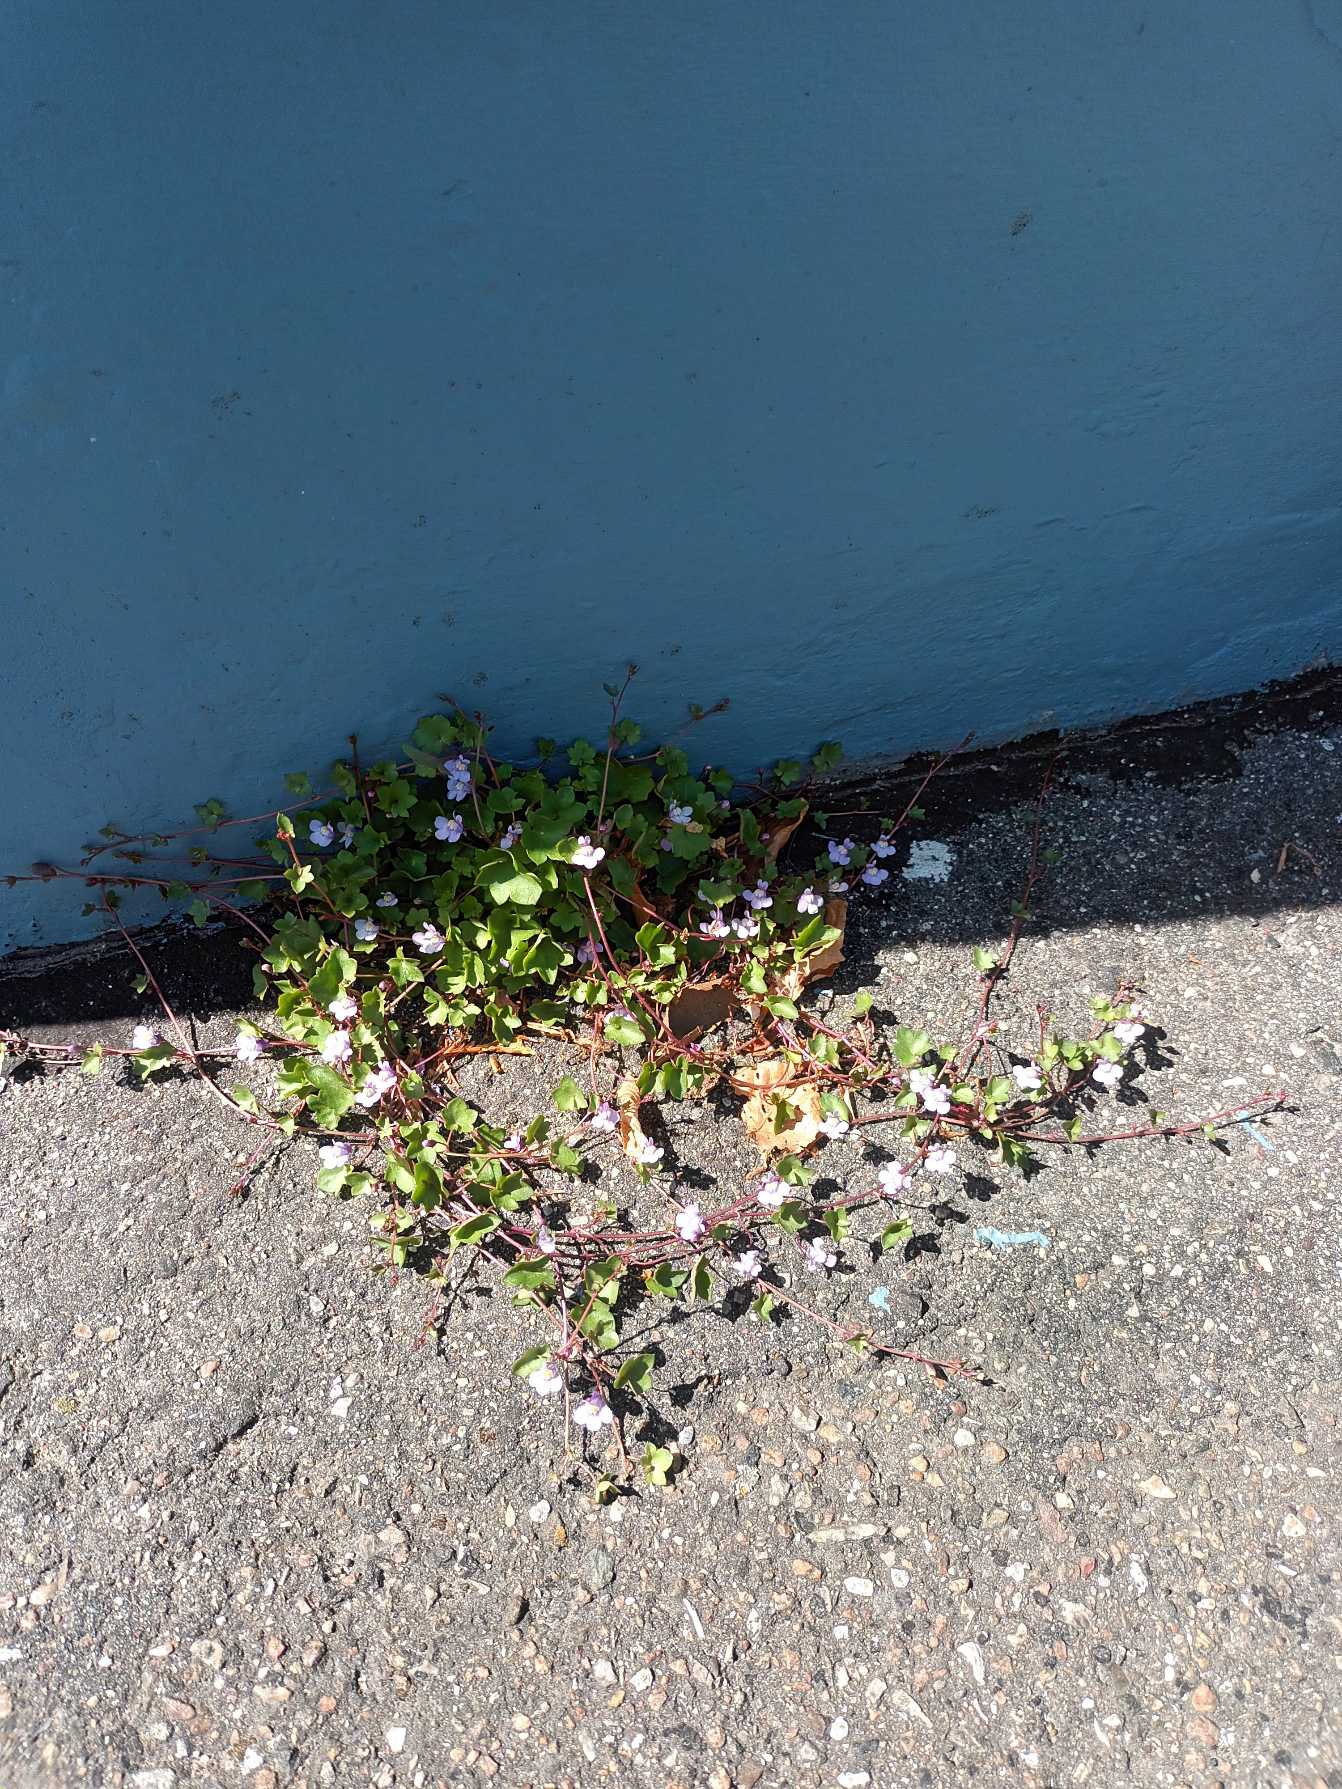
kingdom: Plantae
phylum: Tracheophyta
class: Magnoliopsida
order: Lamiales
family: Plantaginaceae
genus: Cymbalaria
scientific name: Cymbalaria muralis
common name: Vedbend-torskemund
